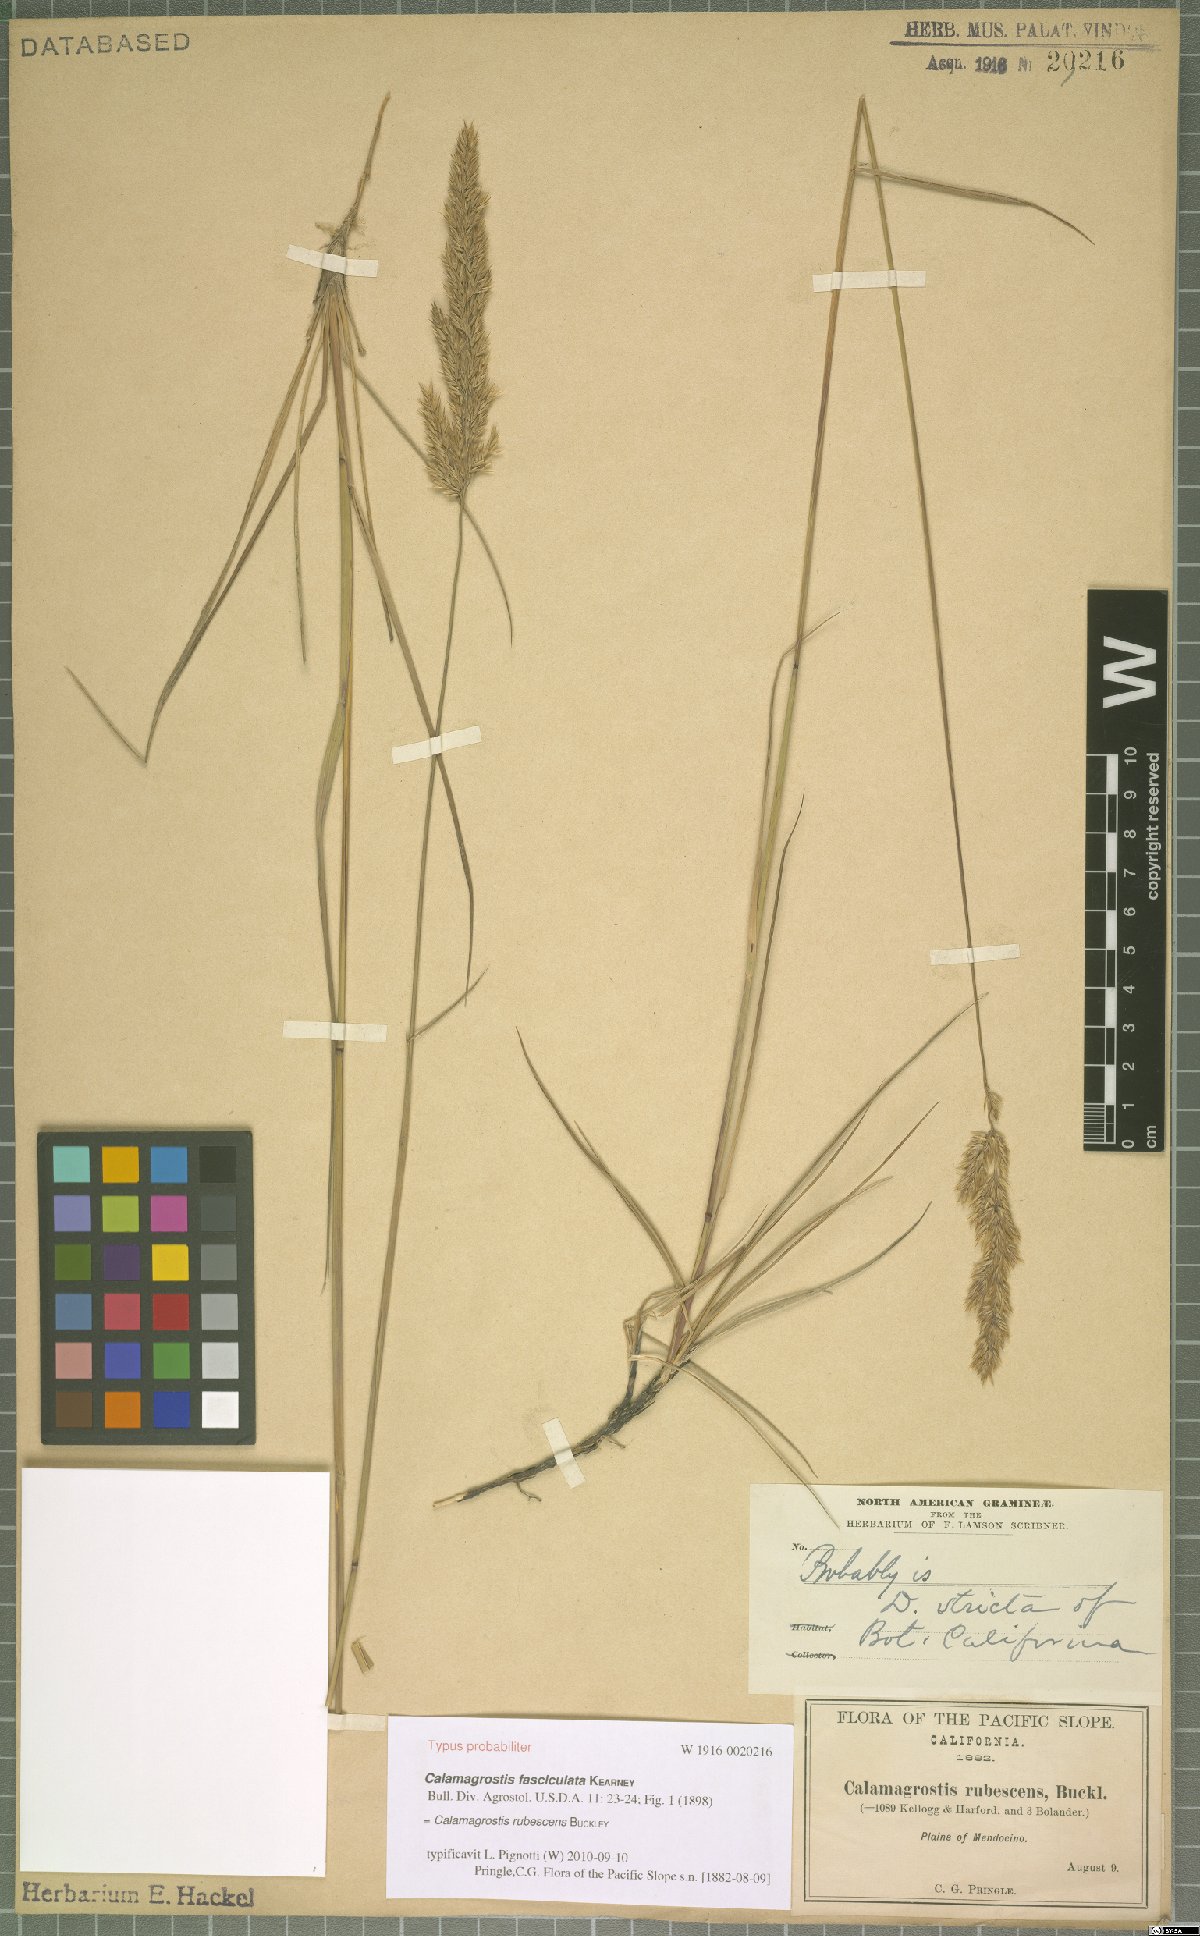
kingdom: Plantae
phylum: Tracheophyta
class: Liliopsida
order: Poales
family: Poaceae
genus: Calamagrostis
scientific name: Calamagrostis rubescens
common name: Pine grass
